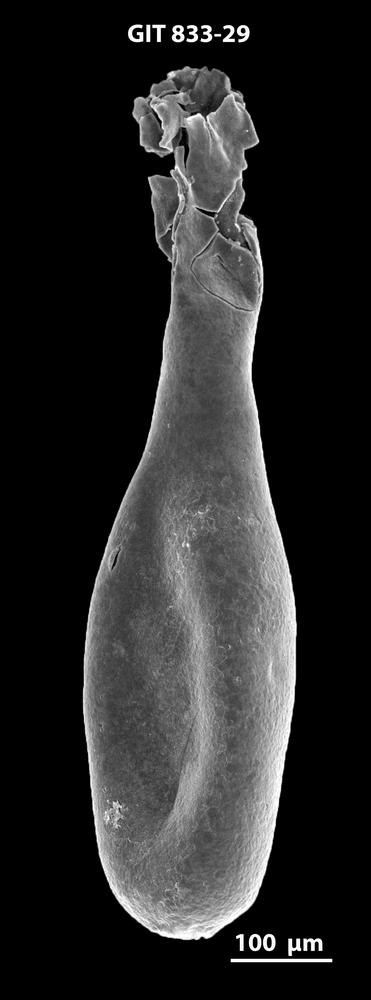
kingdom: Animalia
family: Lagenochitinidae
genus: Lagenochitina
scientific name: Lagenochitina megaesthonica
